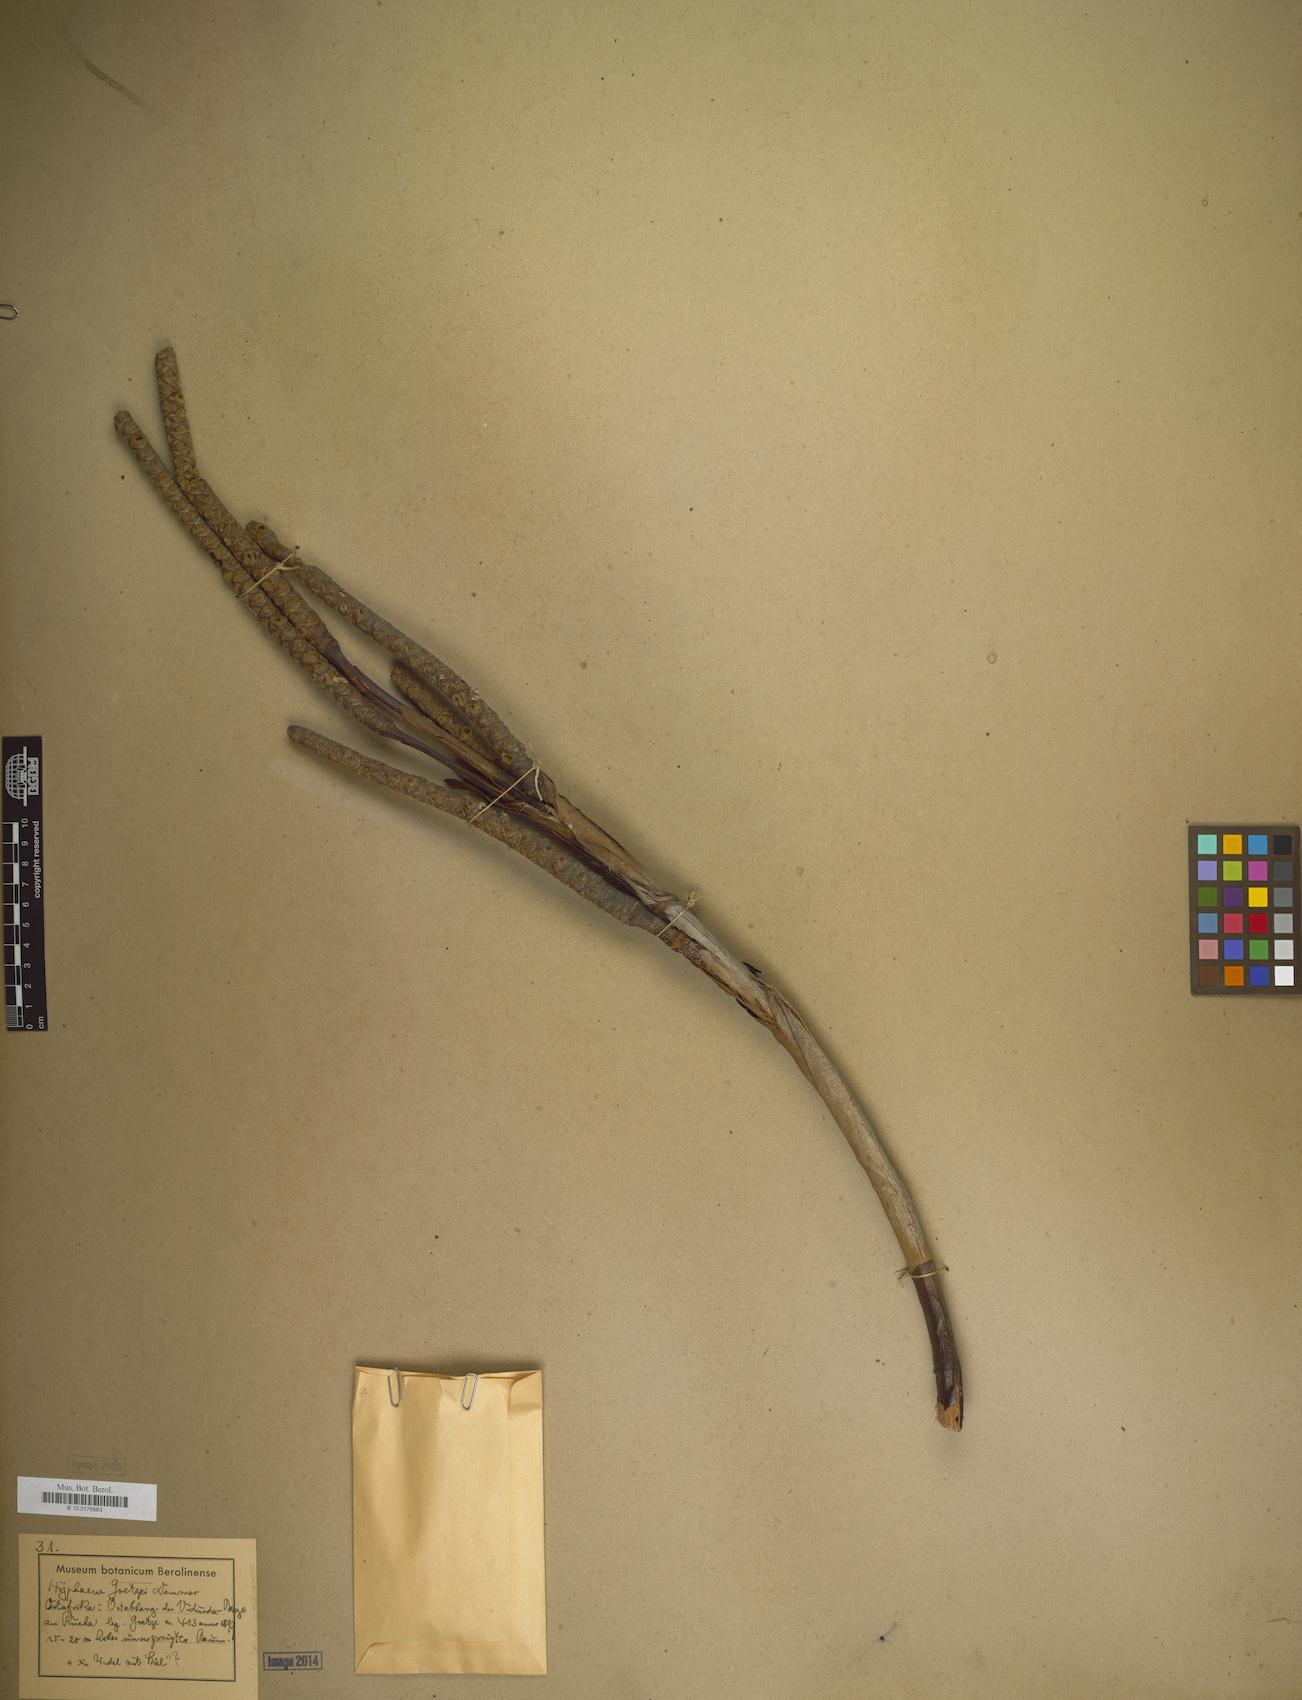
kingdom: Plantae
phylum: Tracheophyta
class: Liliopsida
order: Arecales
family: Arecaceae
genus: Hyphaene
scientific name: Hyphaene petersiana
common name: African ivory nut palm
